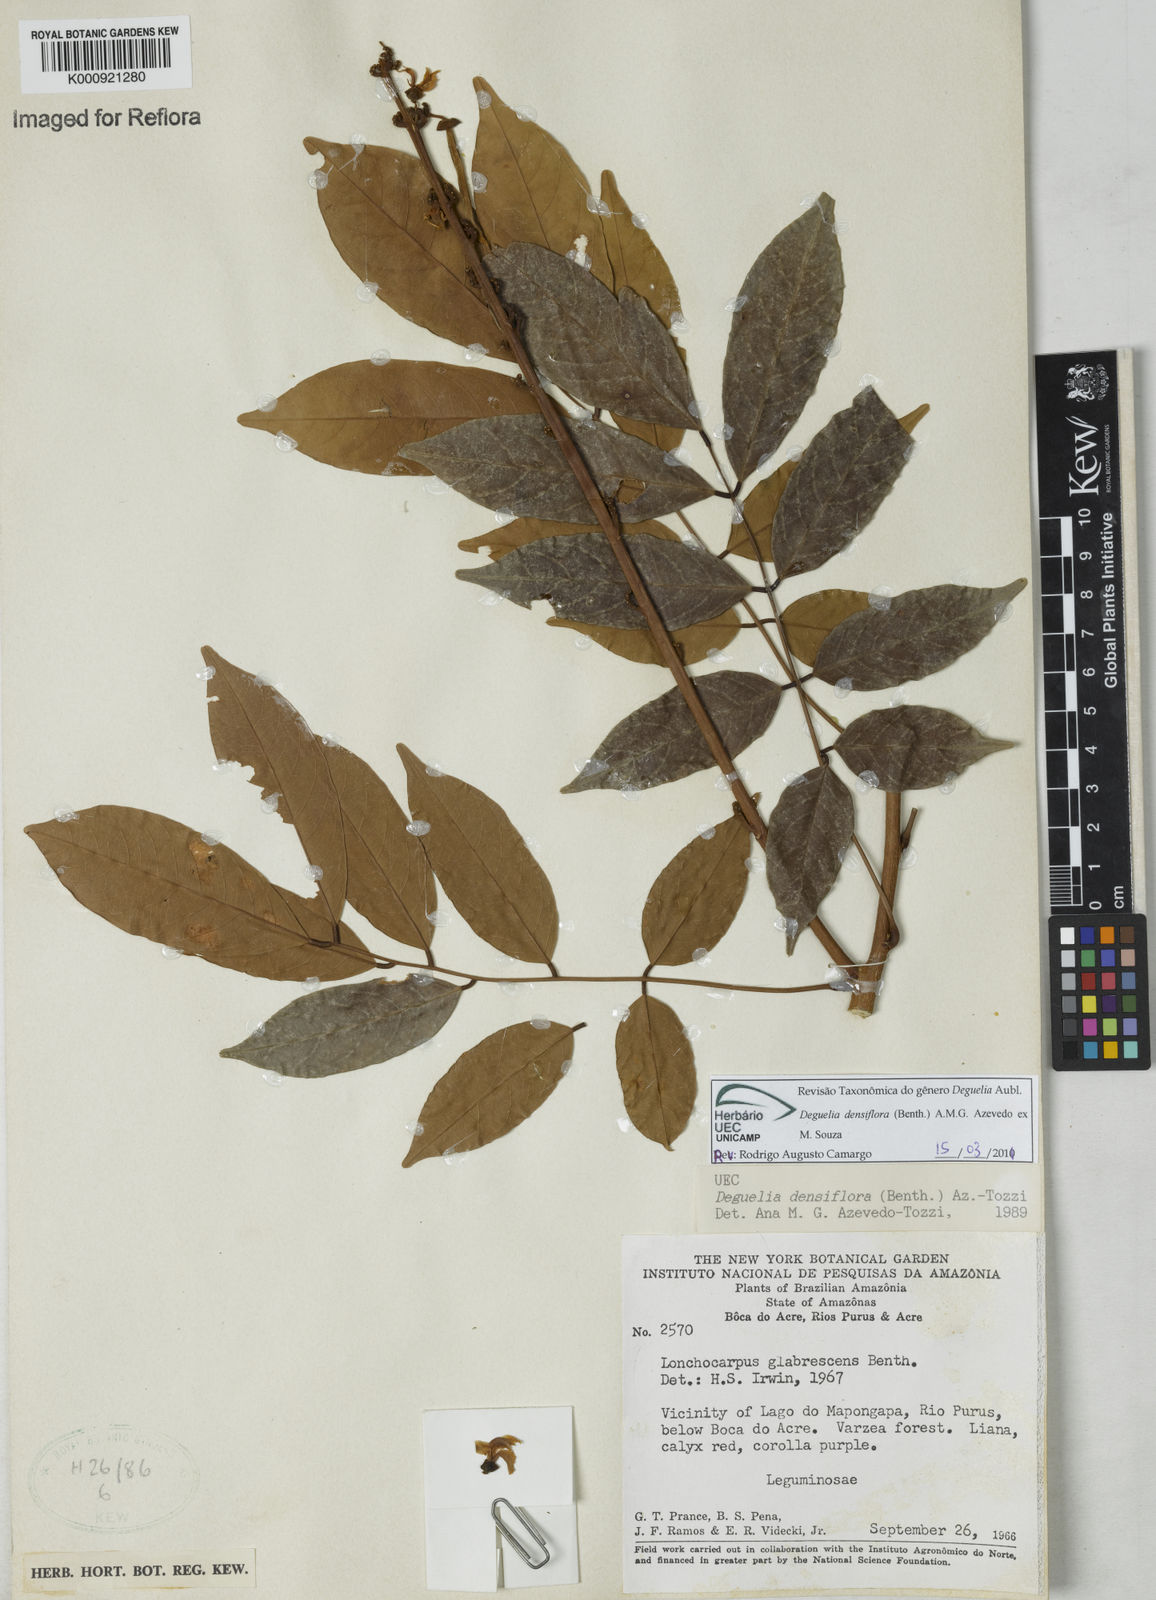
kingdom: Plantae
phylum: Tracheophyta
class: Magnoliopsida
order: Fabales
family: Fabaceae
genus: Deguelia
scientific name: Deguelia
